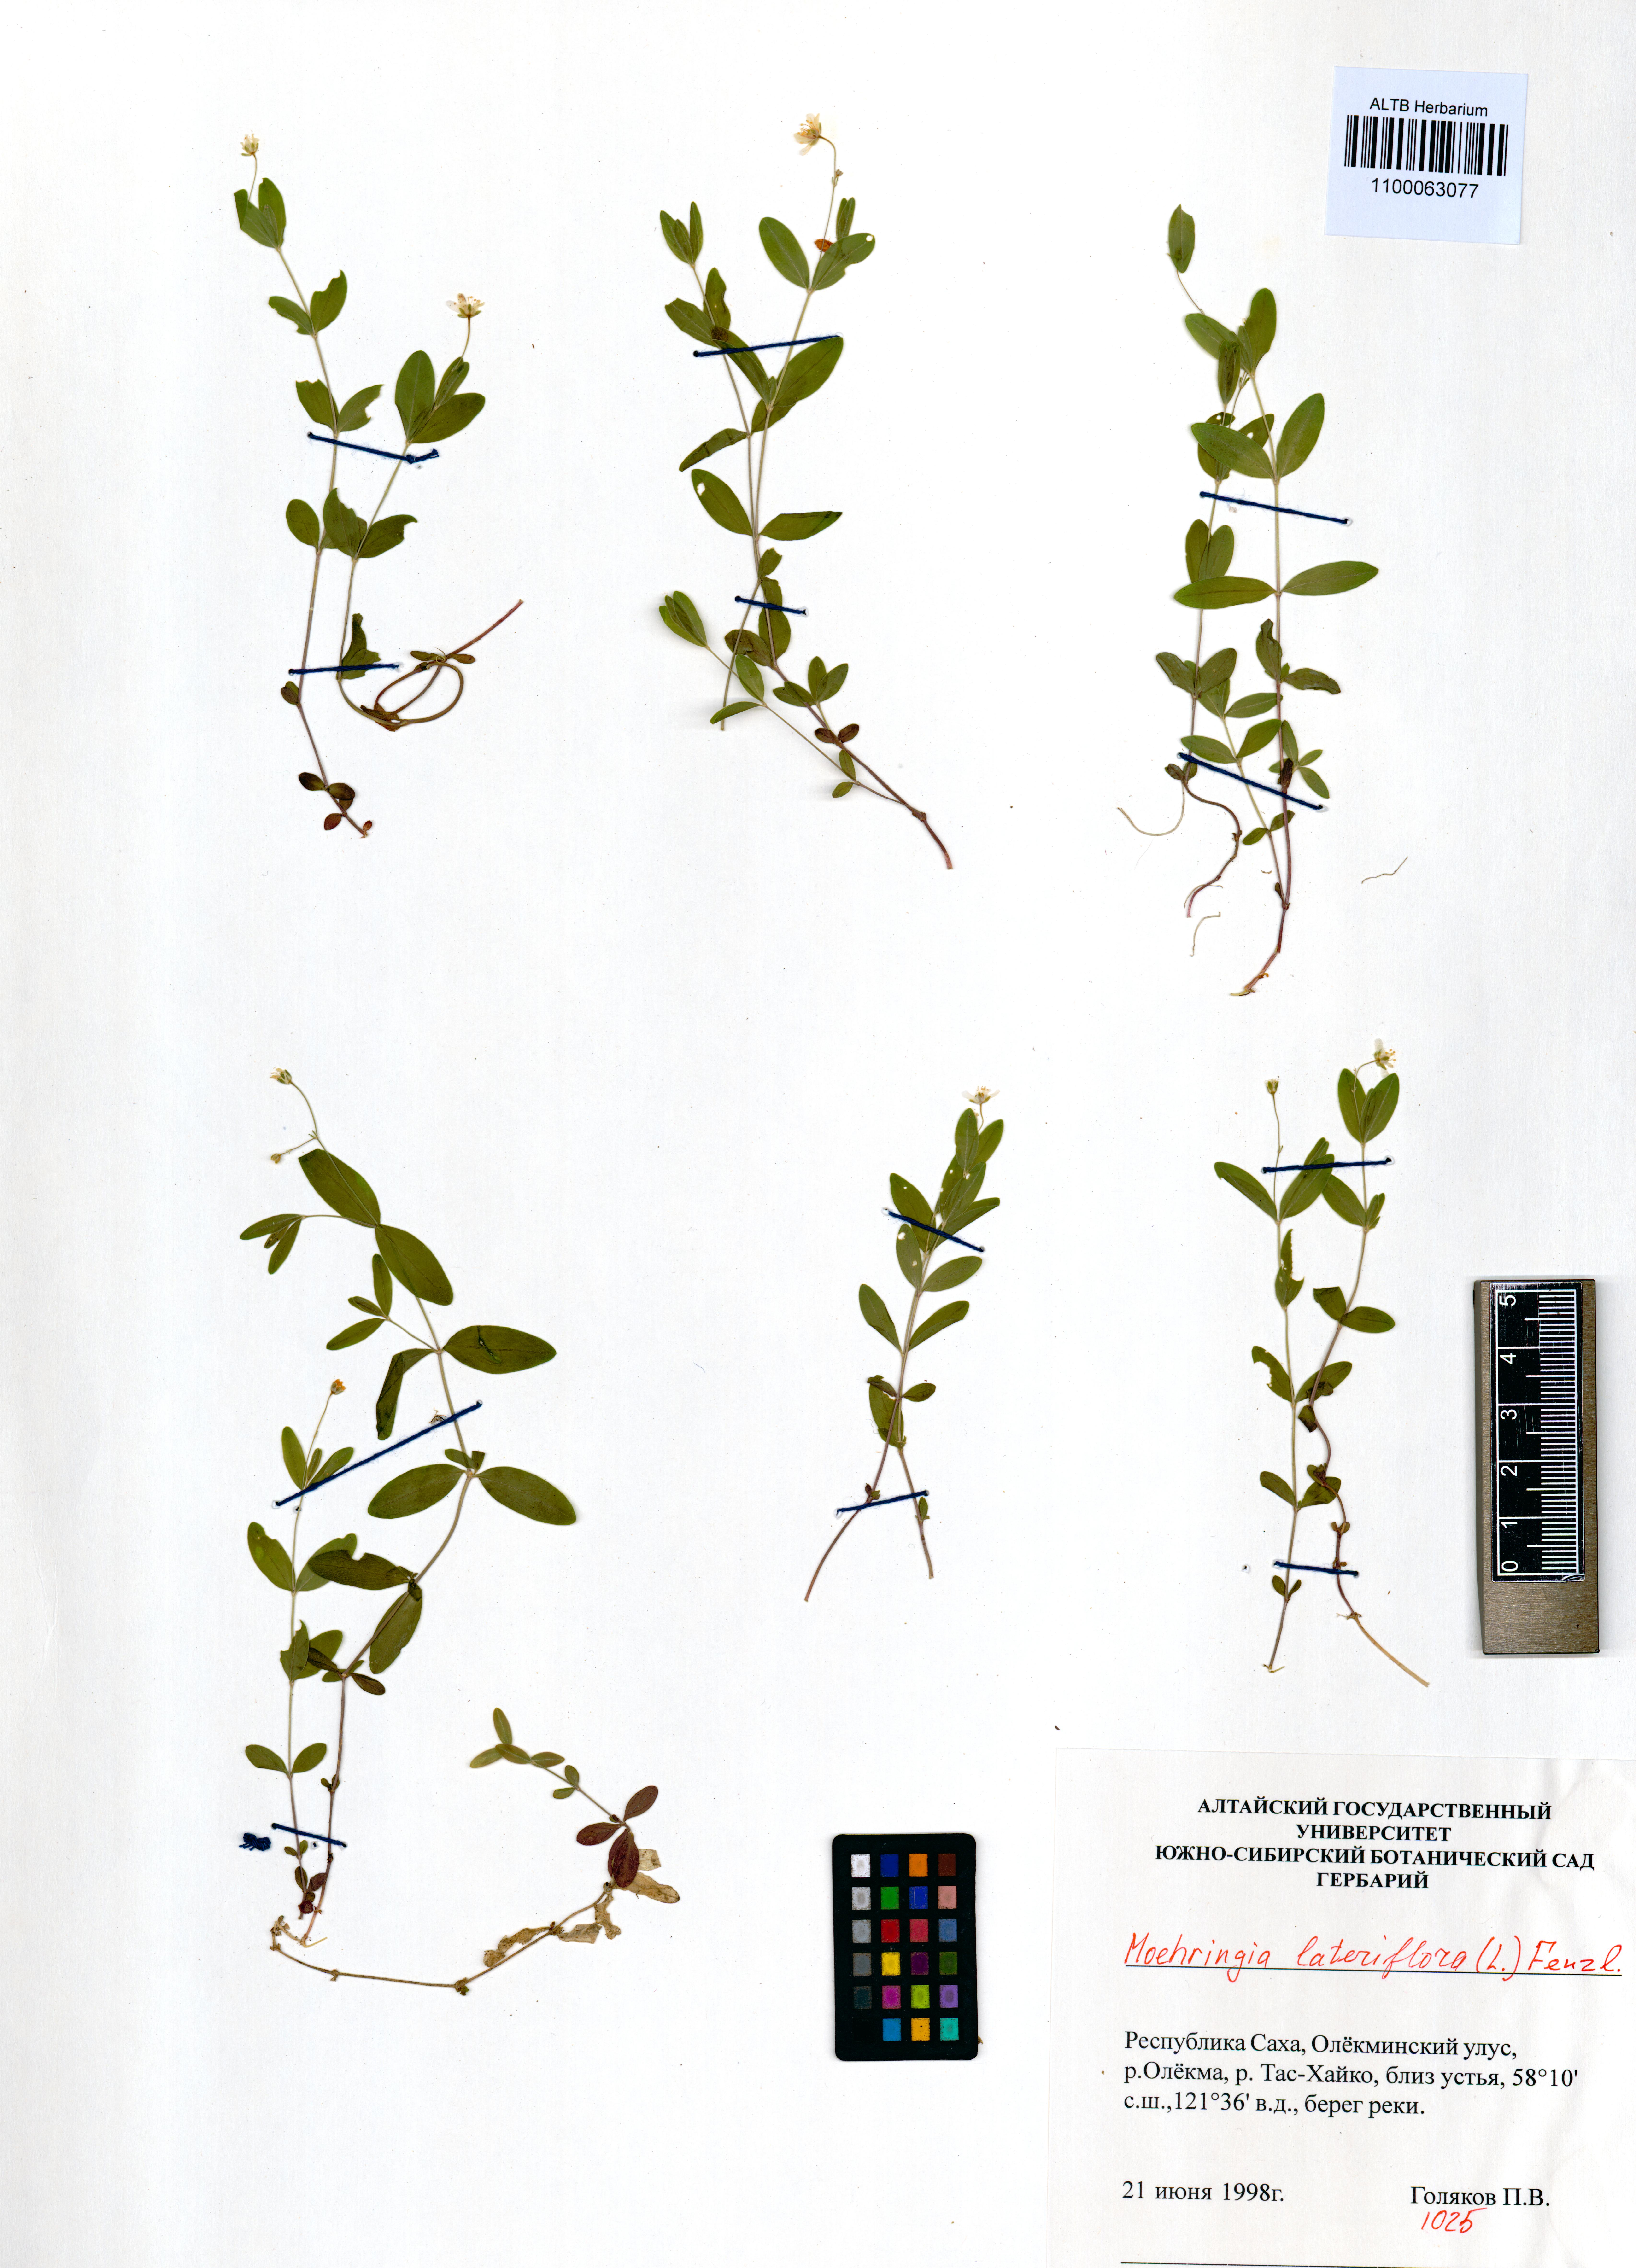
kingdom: Plantae
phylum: Tracheophyta
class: Magnoliopsida
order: Caryophyllales
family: Caryophyllaceae
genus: Moehringia
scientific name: Moehringia lateriflora
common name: Blunt-leaved sandwort
